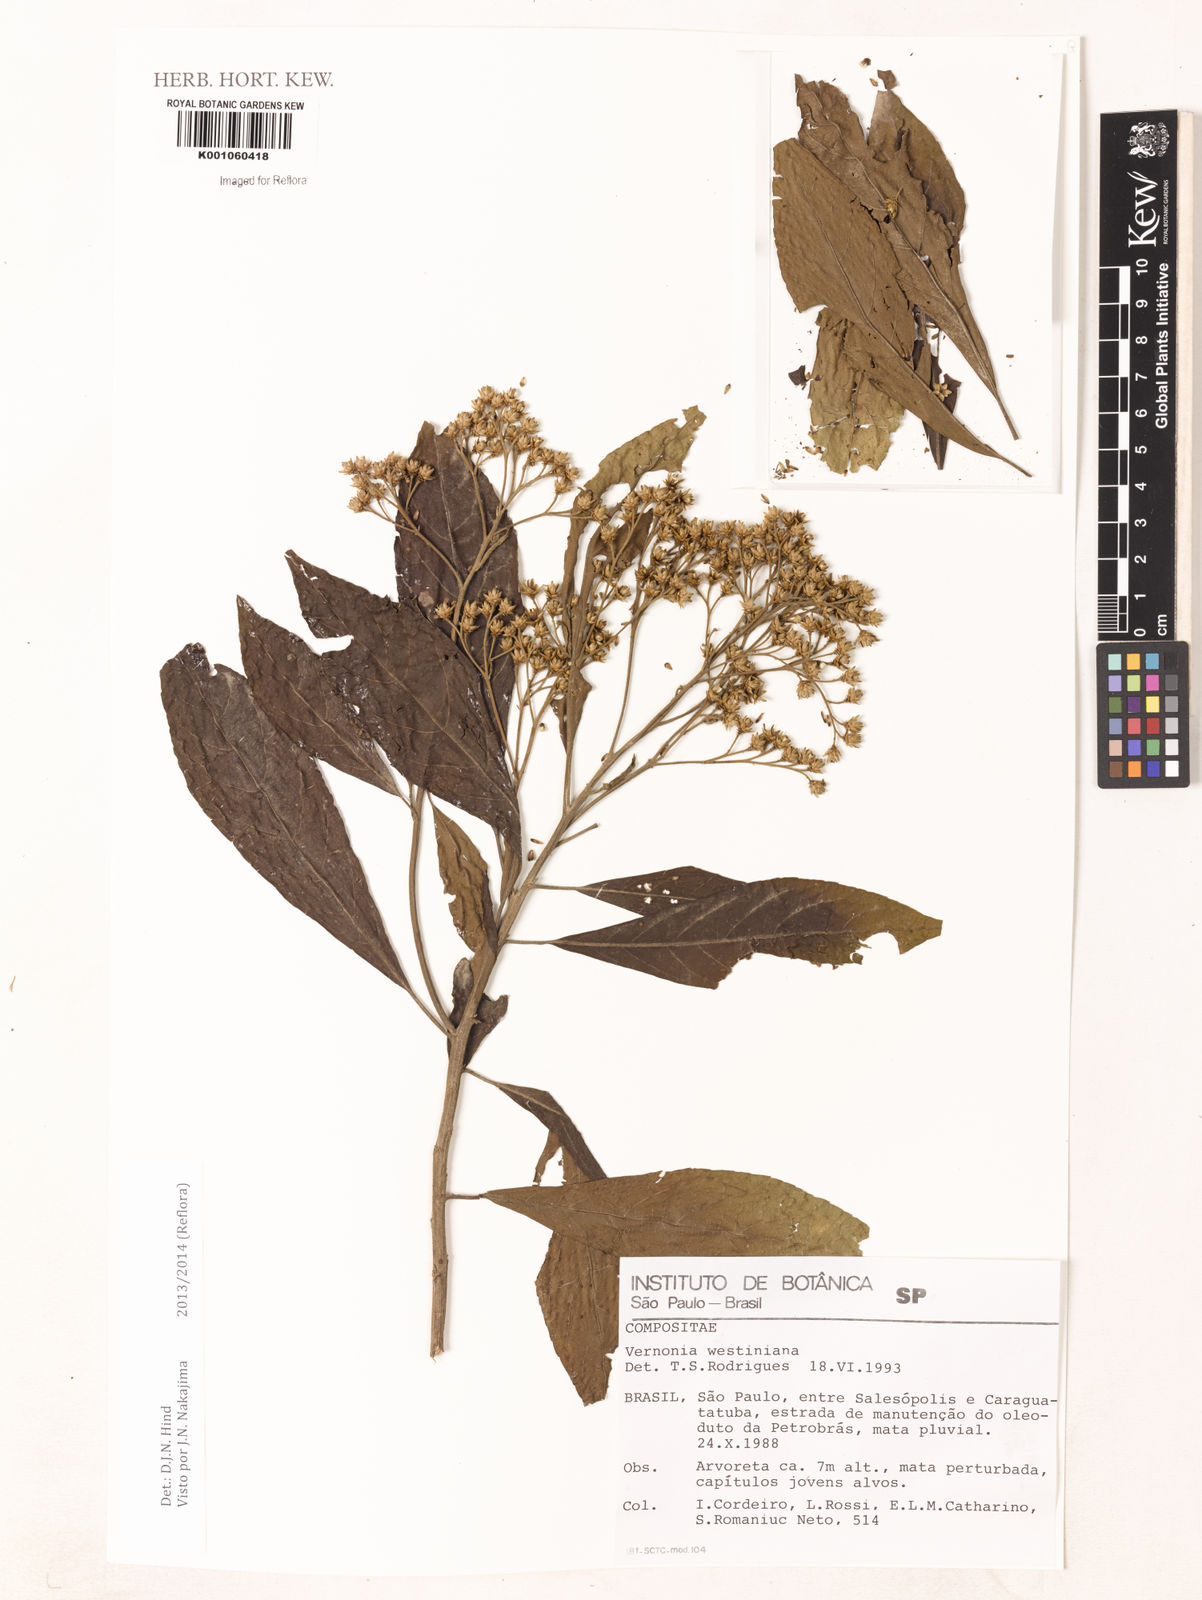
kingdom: Plantae
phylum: Tracheophyta
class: Magnoliopsida
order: Asterales
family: Asteraceae
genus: Vernonanthura
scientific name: Vernonanthura puberula
